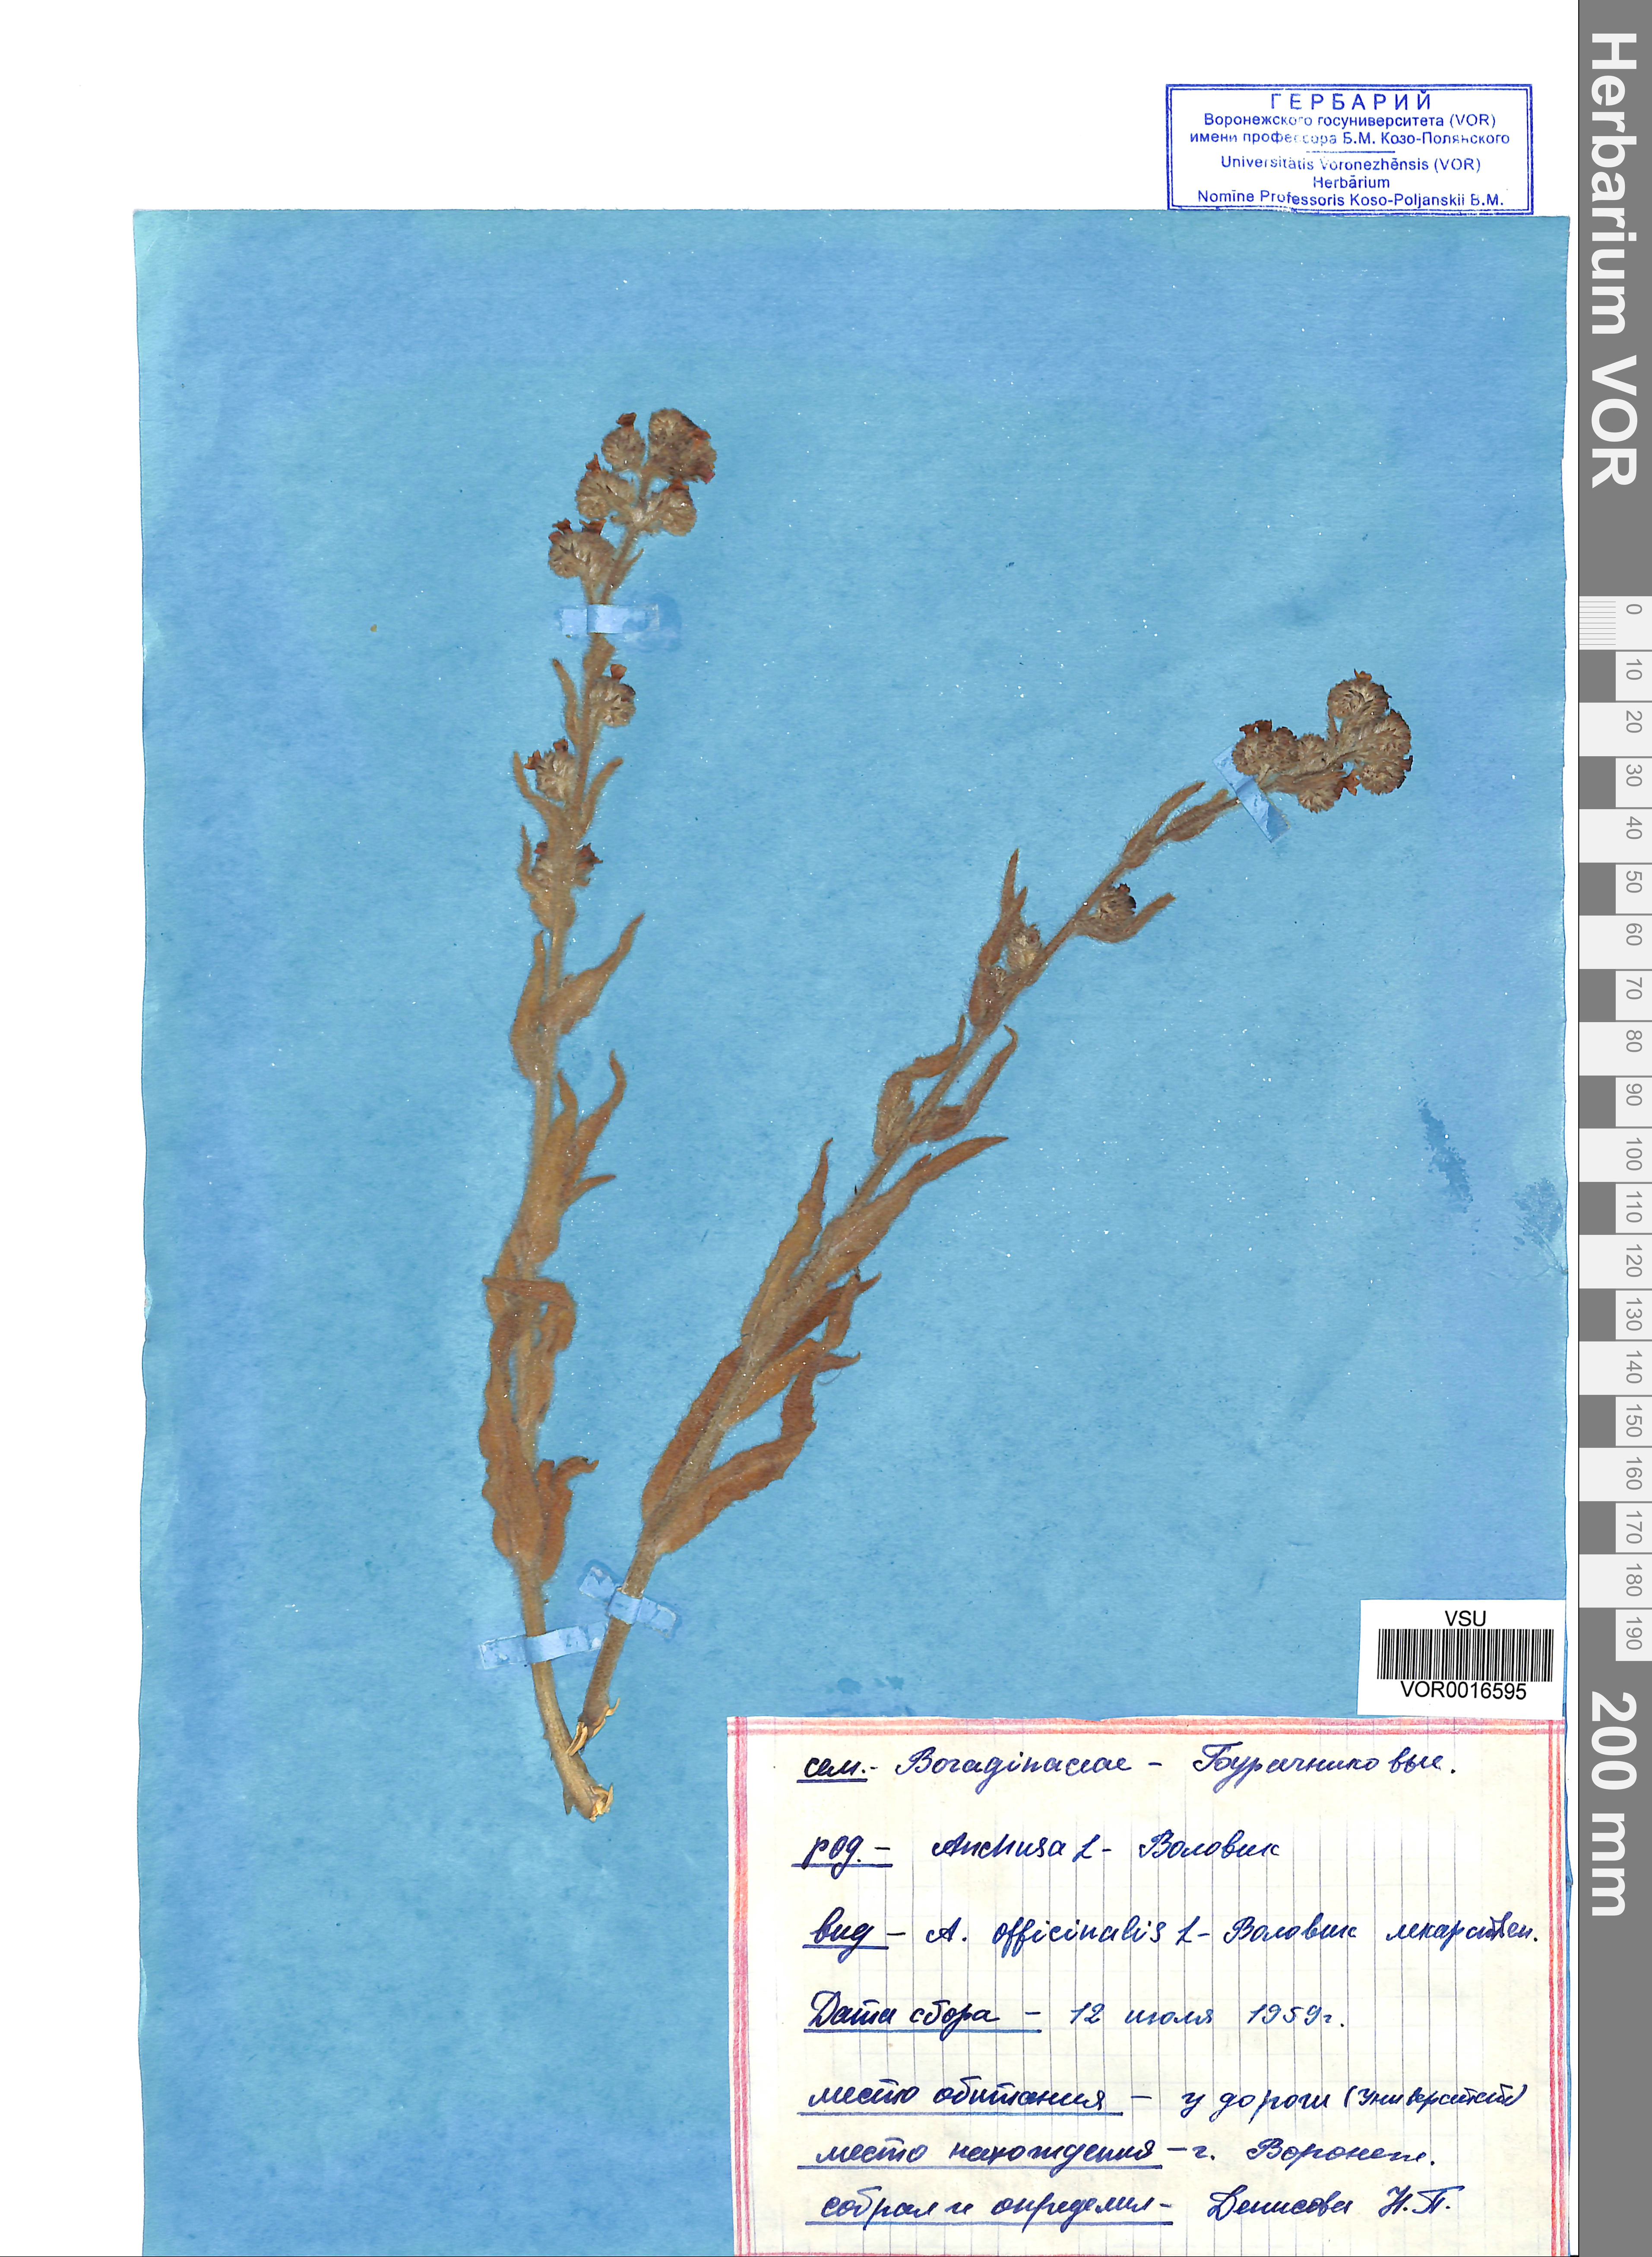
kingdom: Plantae
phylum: Tracheophyta
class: Magnoliopsida
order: Boraginales
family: Boraginaceae
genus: Anchusa
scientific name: Anchusa officinalis
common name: Alkanet
